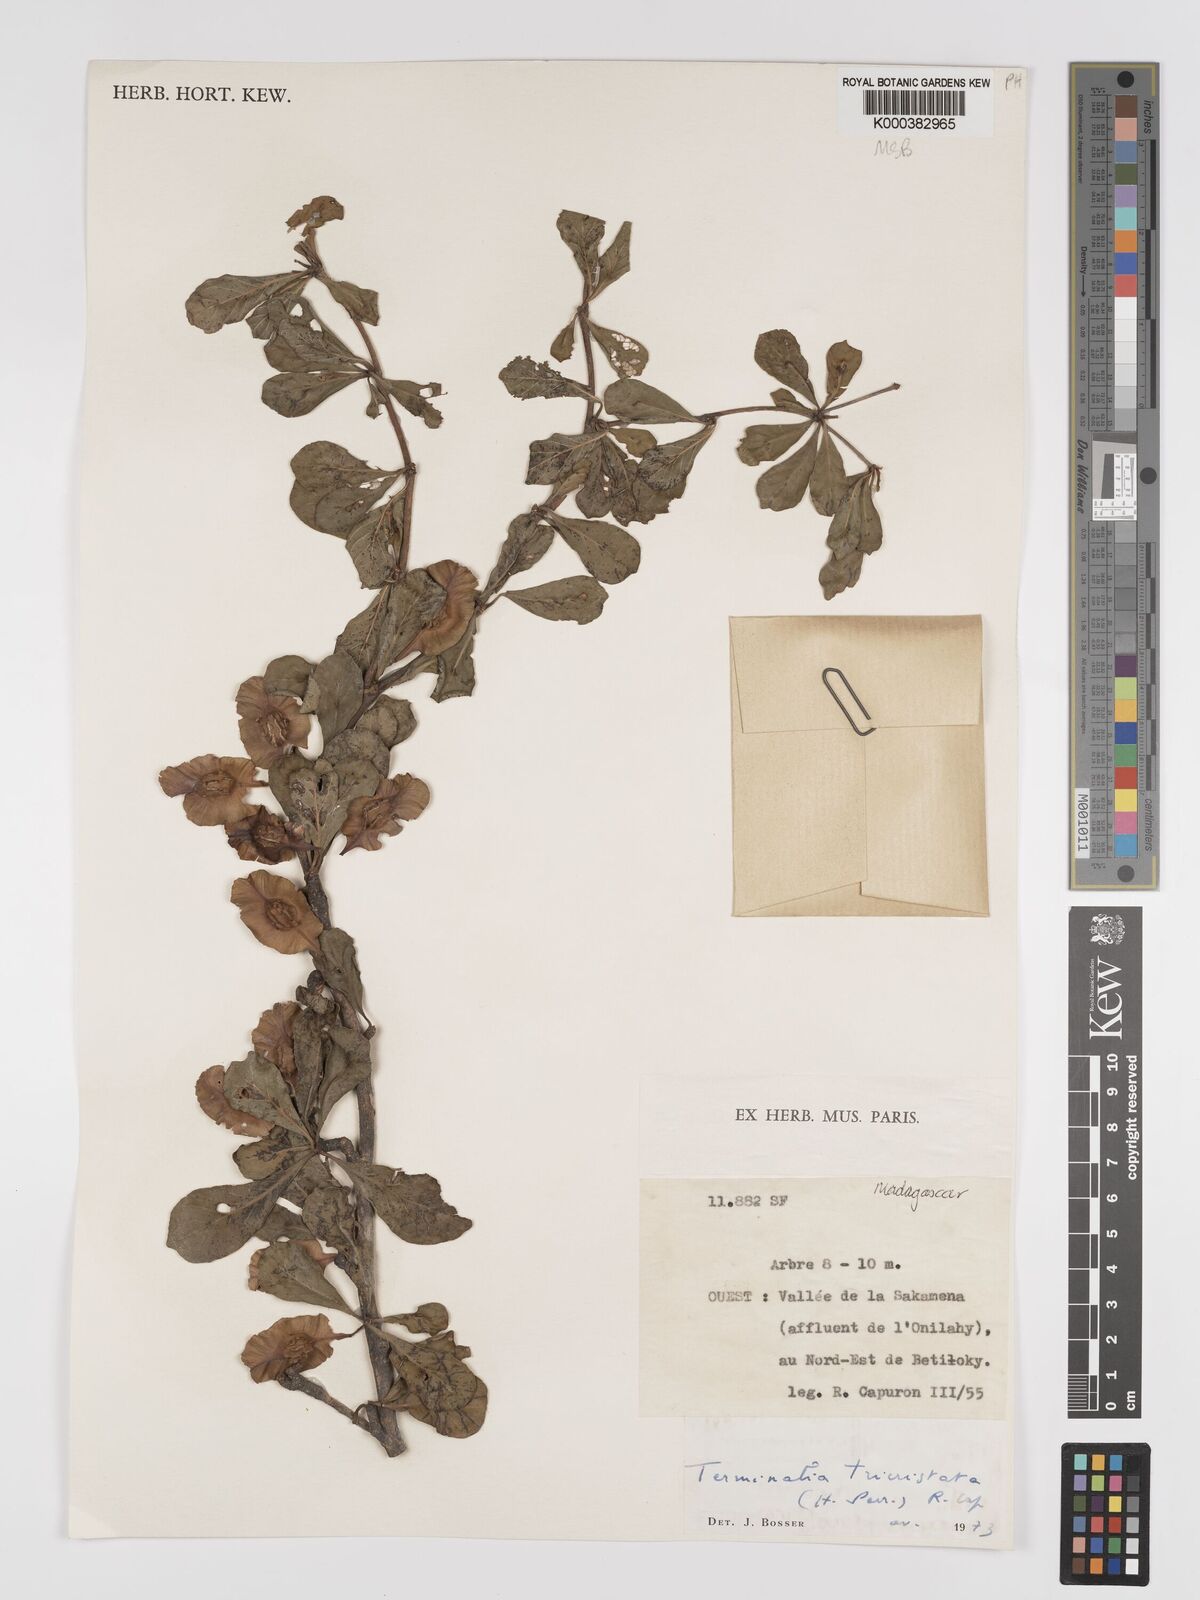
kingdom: Plantae
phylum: Tracheophyta
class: Magnoliopsida
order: Myrtales
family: Combretaceae
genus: Terminalia
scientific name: Terminalia
